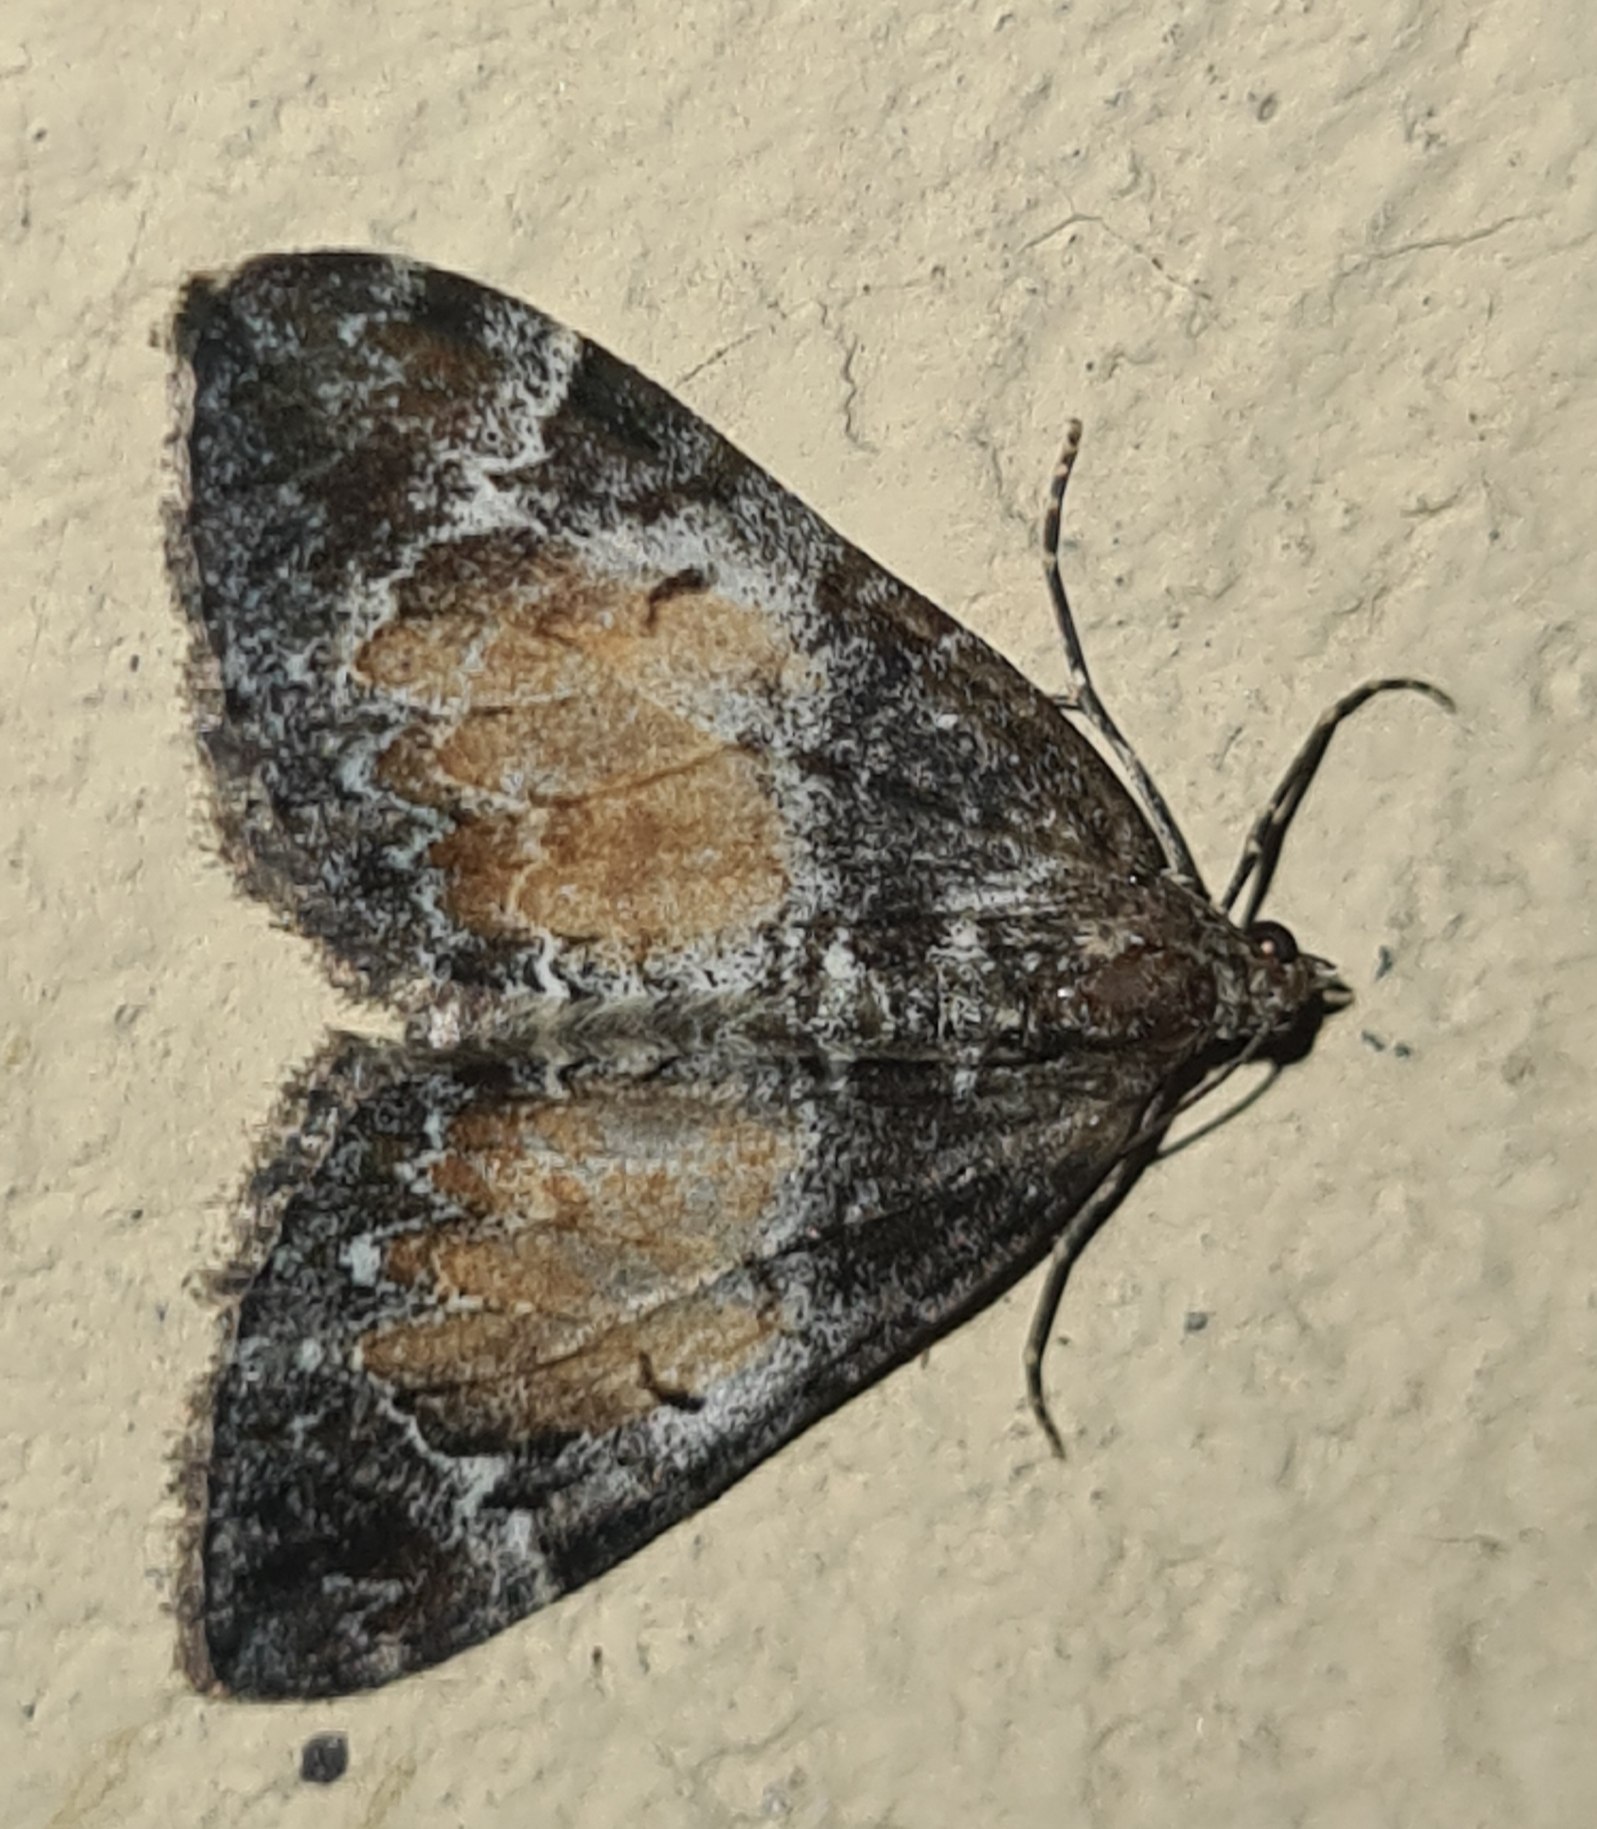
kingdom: Animalia
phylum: Arthropoda
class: Insecta
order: Lepidoptera
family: Geometridae
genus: Dysstroma
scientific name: Dysstroma truncata
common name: Jordbær-bladmåler
